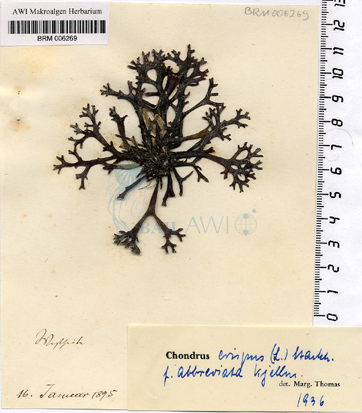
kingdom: Plantae
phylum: Rhodophyta
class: Florideophyceae
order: Gigartinales
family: Gigartinaceae
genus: Chondrus
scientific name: Chondrus crispus
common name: Carrageen
